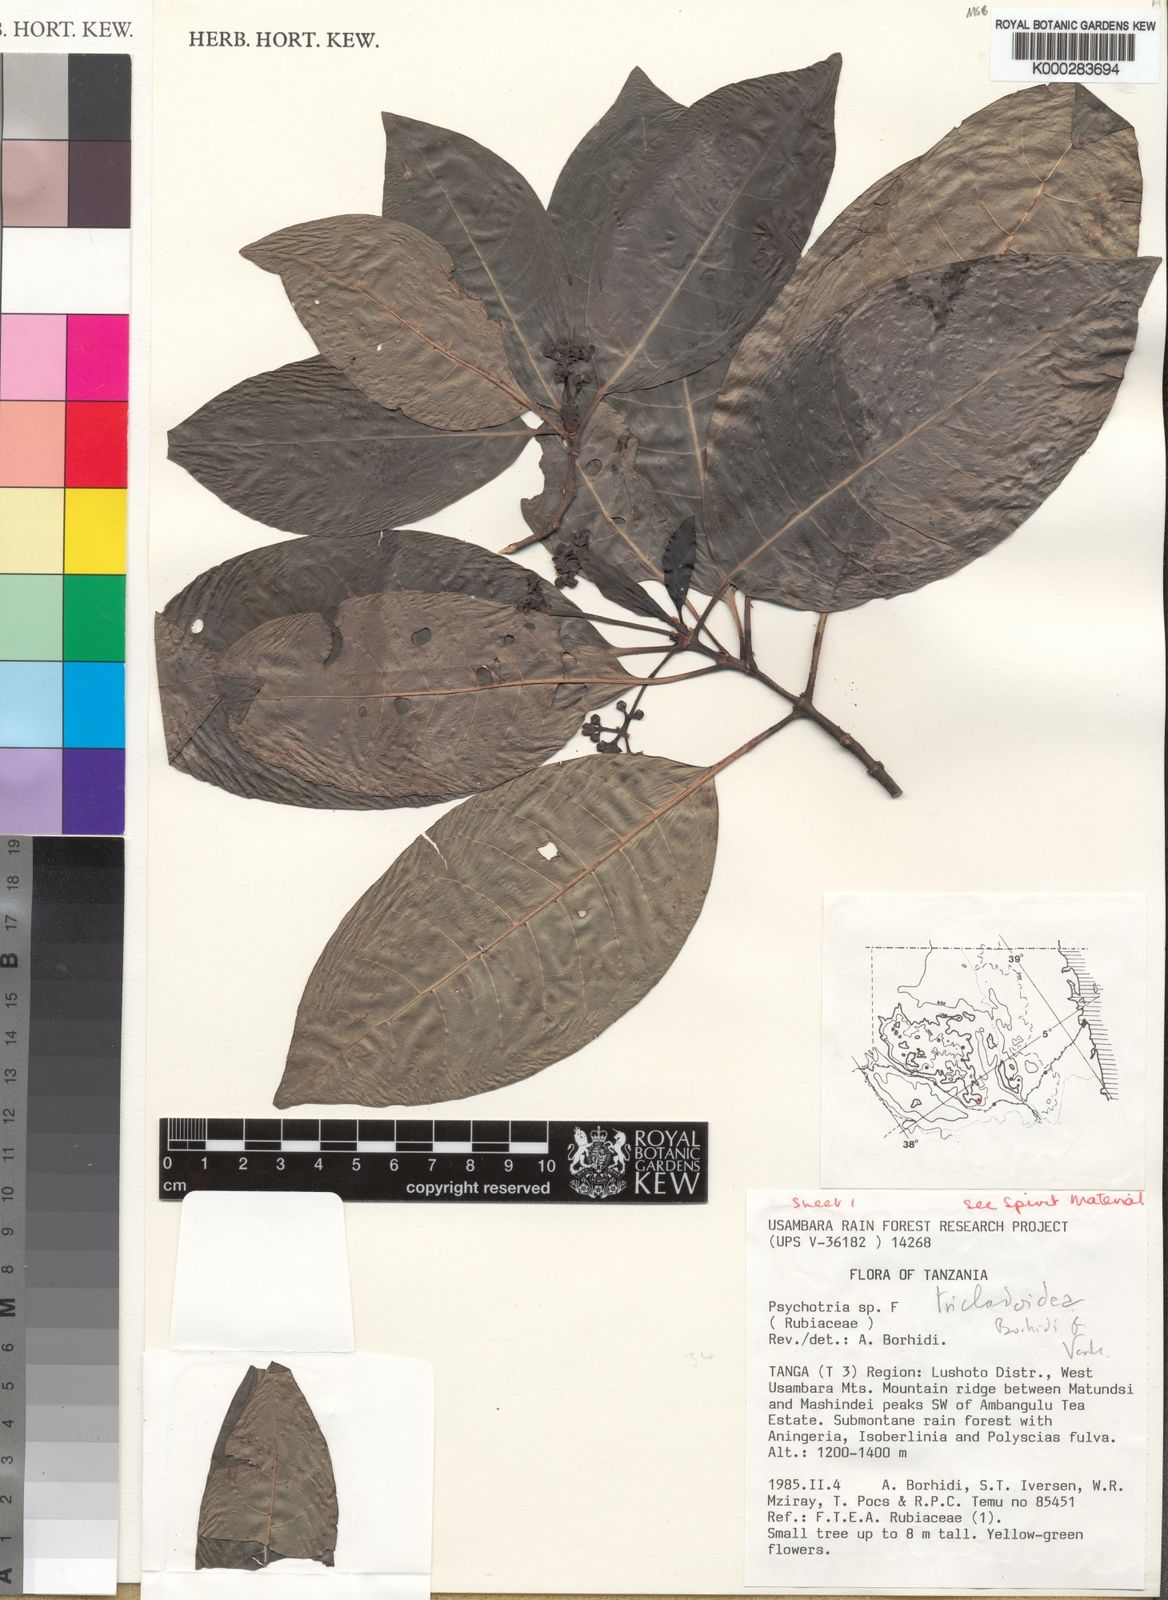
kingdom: Plantae
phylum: Tracheophyta
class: Magnoliopsida
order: Gentianales
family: Rubiaceae
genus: Psychotria
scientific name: Psychotria
